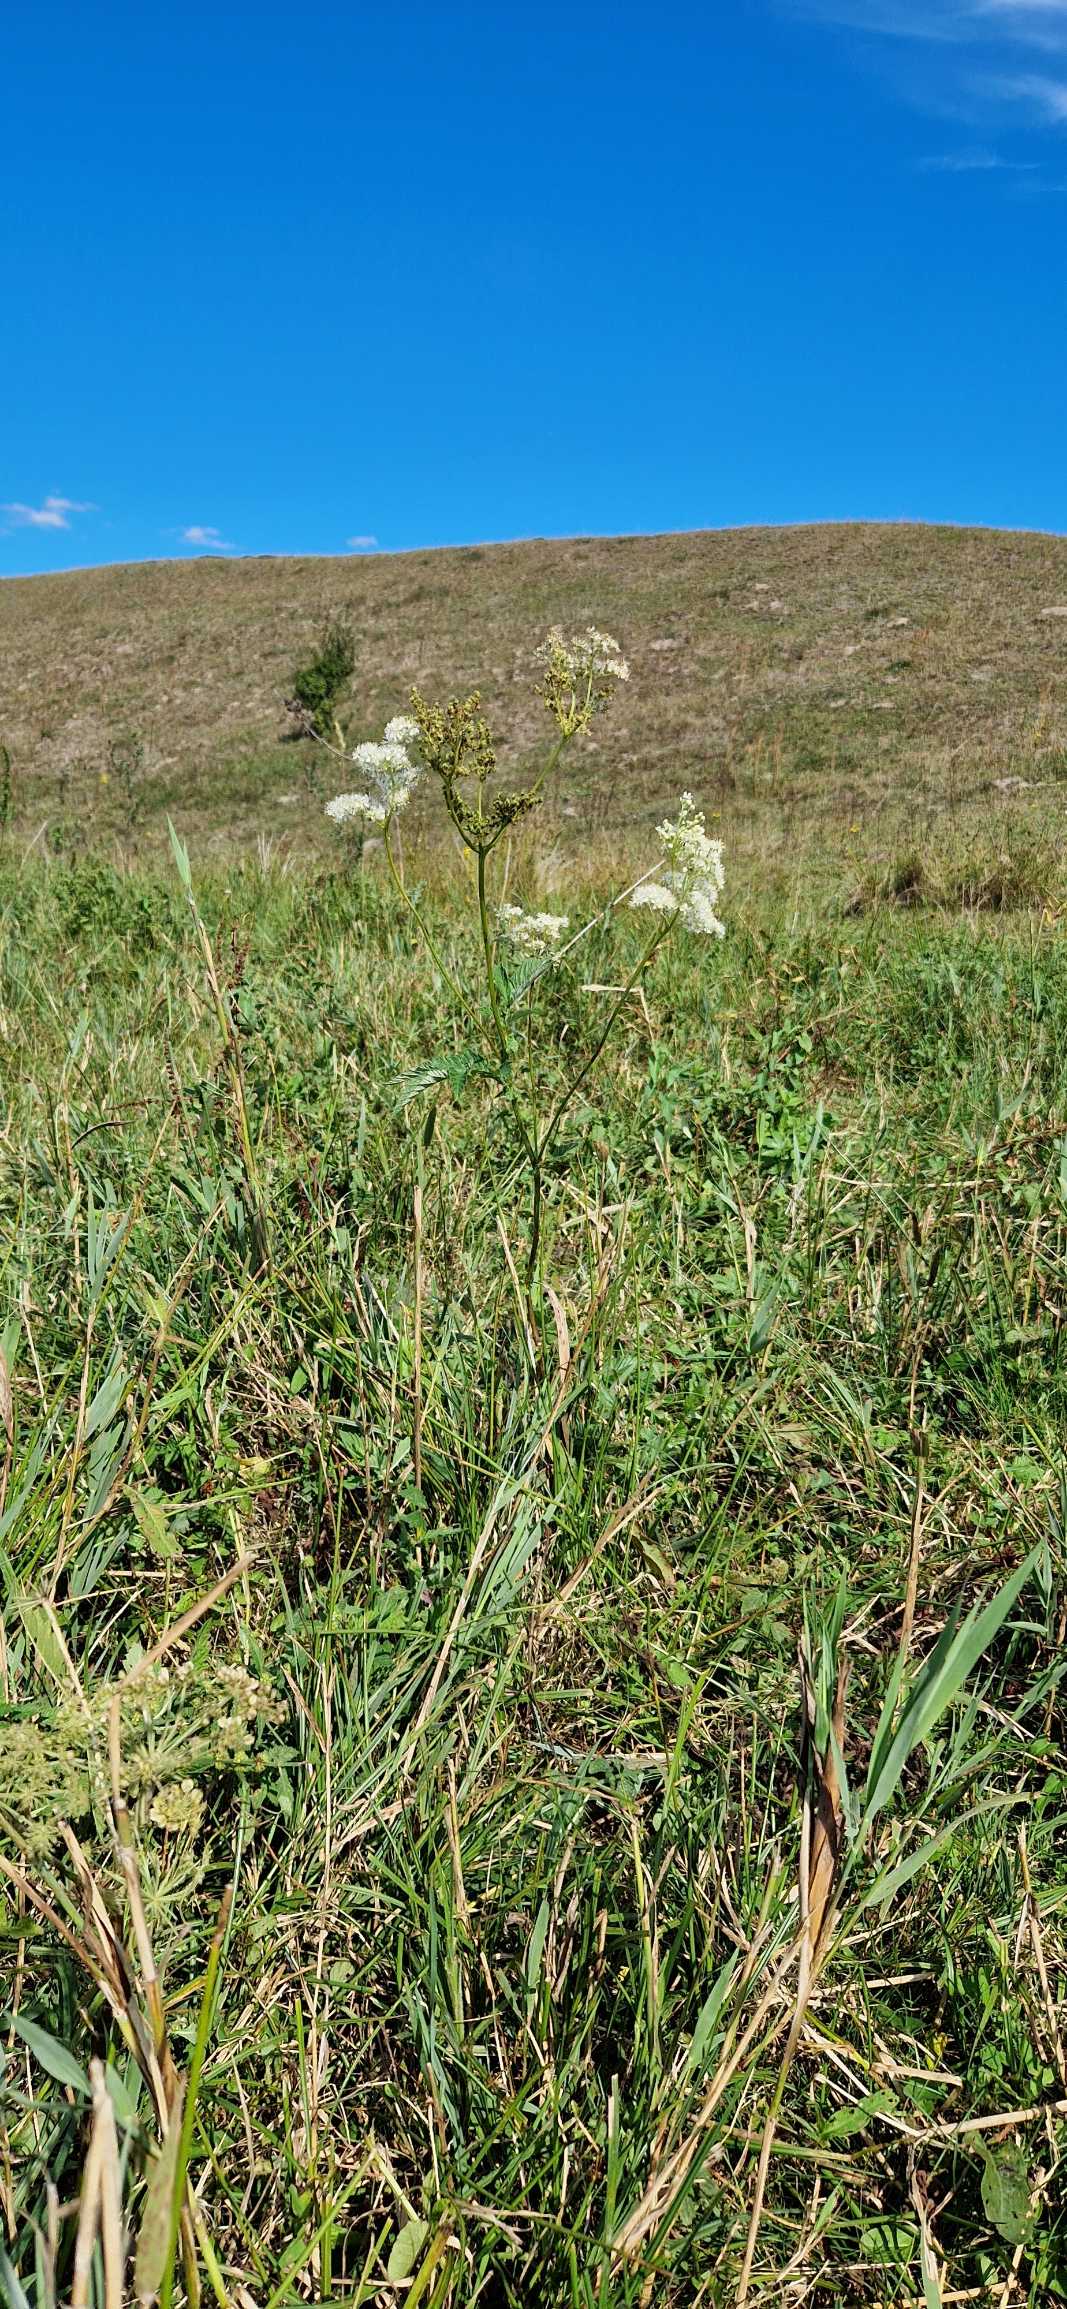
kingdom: Plantae
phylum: Tracheophyta
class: Magnoliopsida
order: Rosales
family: Rosaceae
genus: Filipendula
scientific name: Filipendula ulmaria
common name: Almindelig mjødurt
